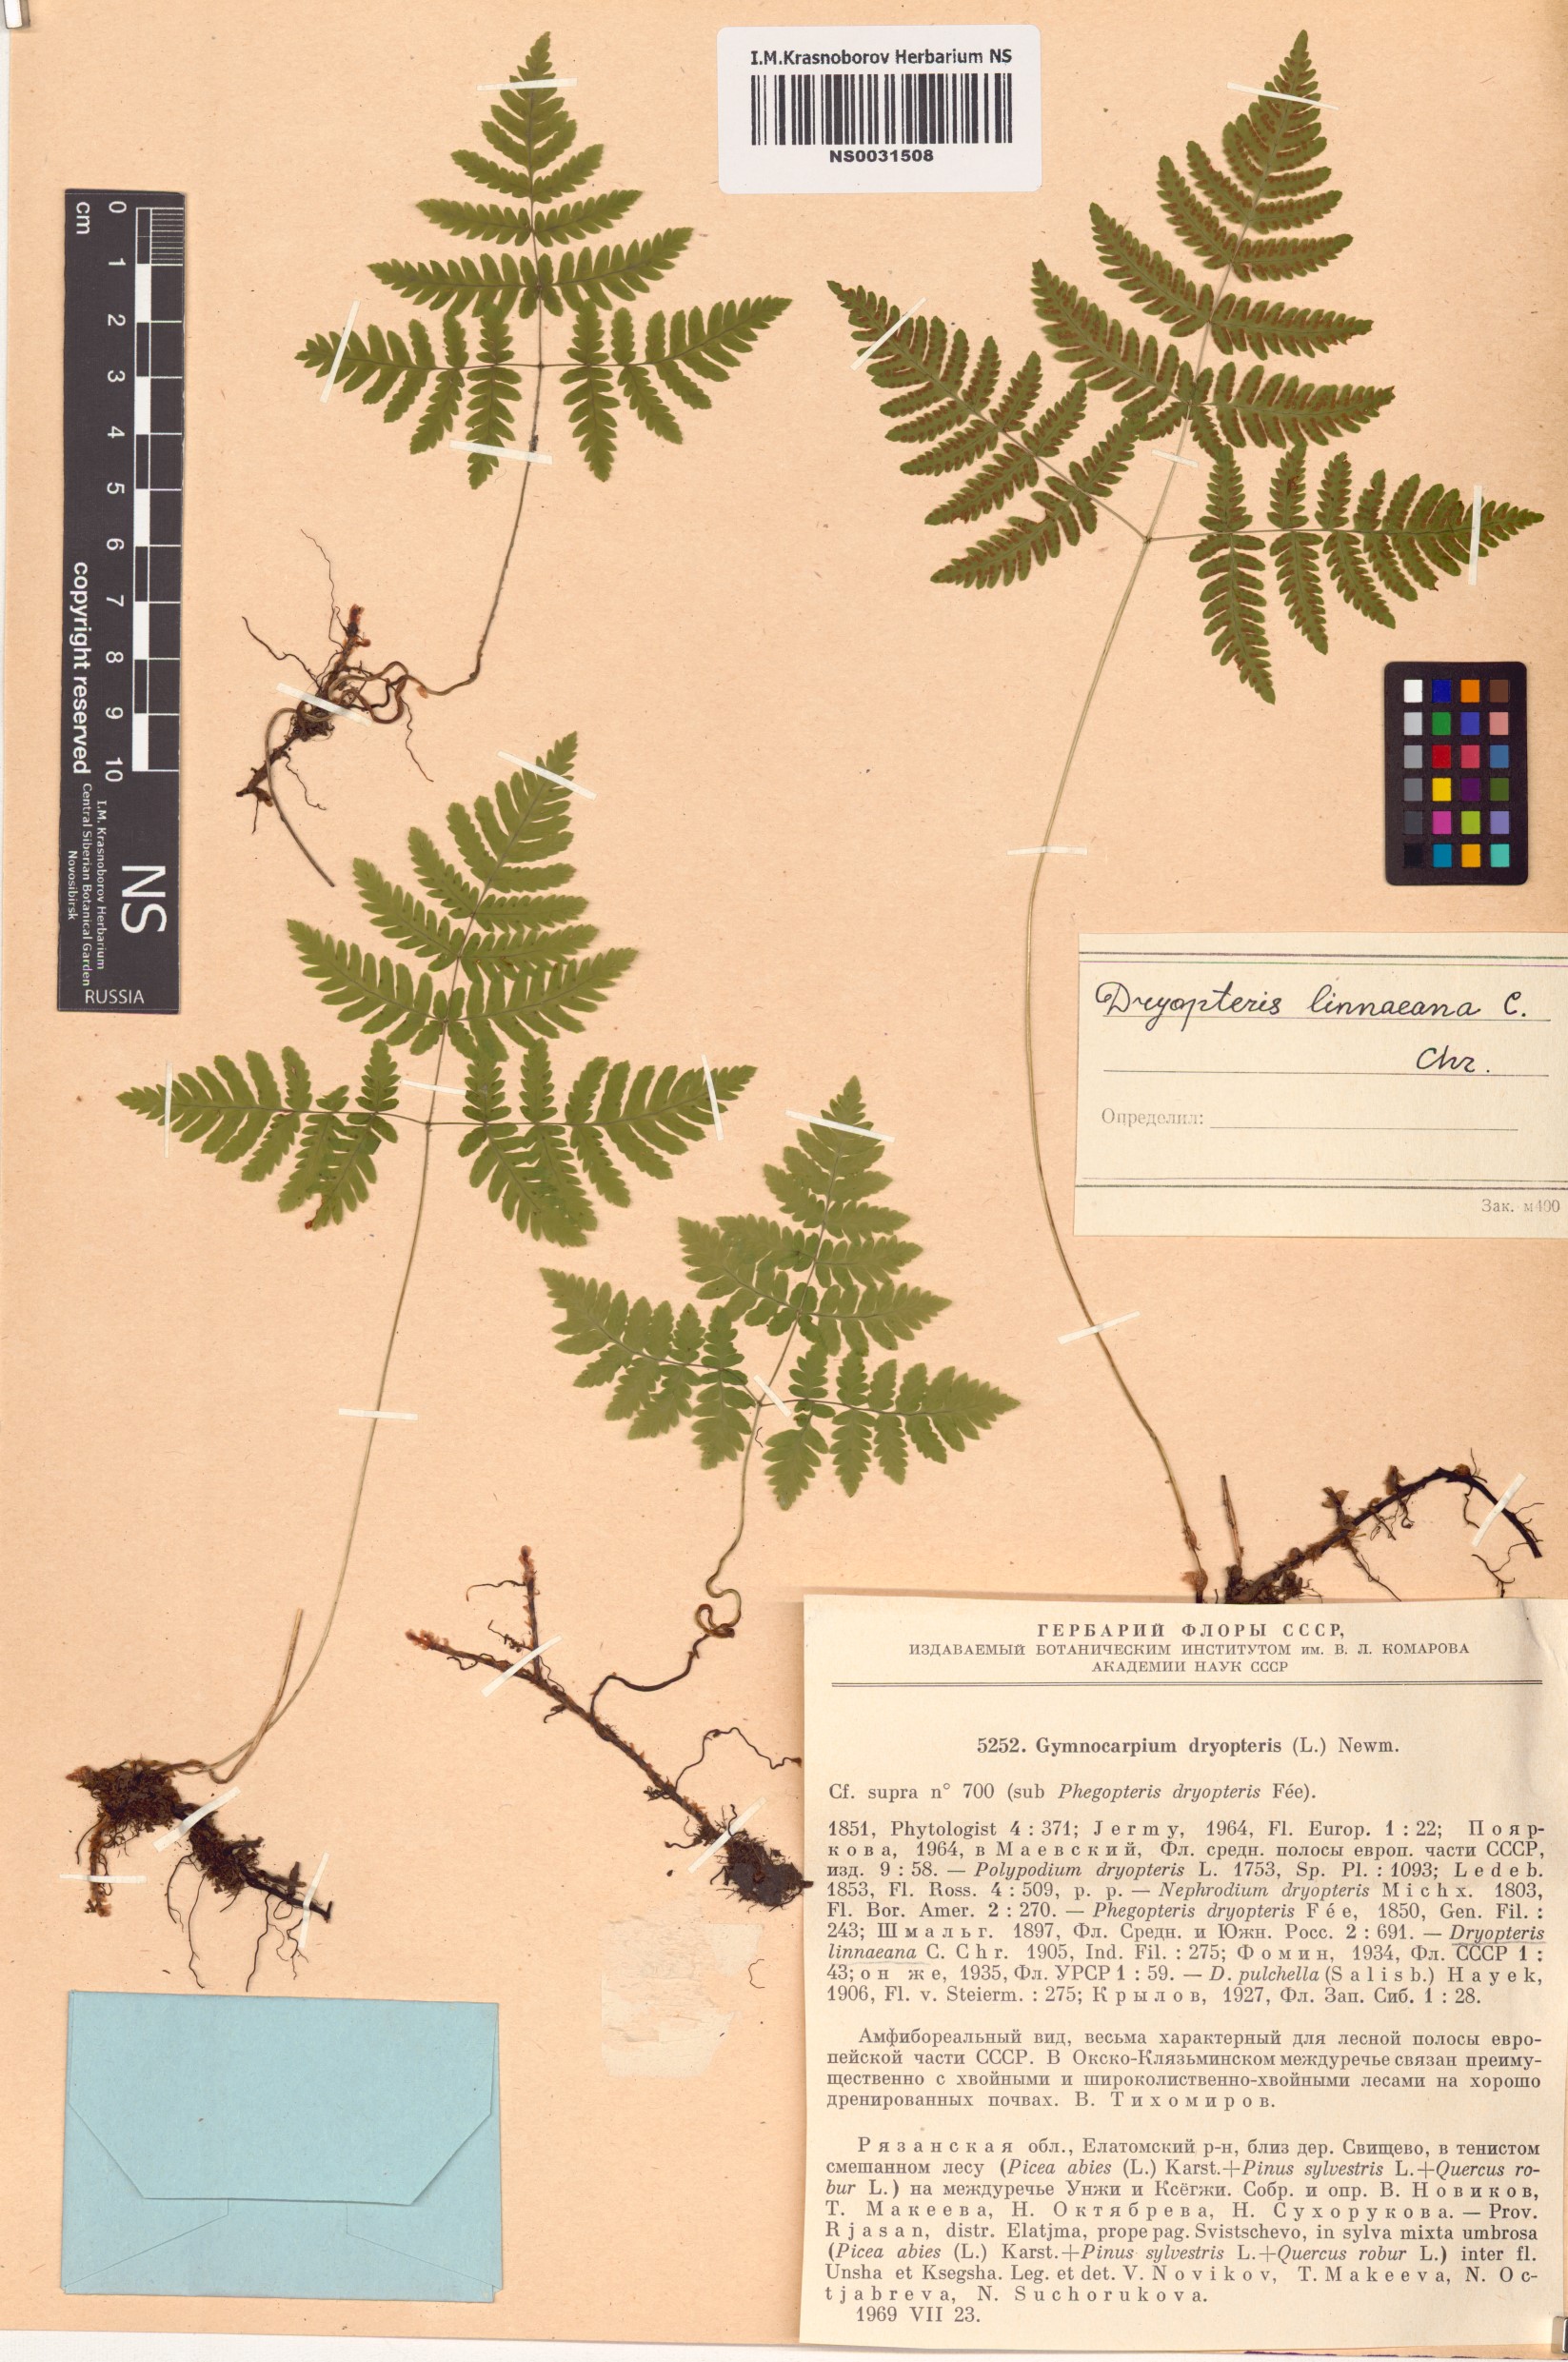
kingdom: Plantae
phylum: Tracheophyta
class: Polypodiopsida
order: Polypodiales
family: Cystopteridaceae
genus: Gymnocarpium
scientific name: Gymnocarpium dryopteris
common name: Oak fern
